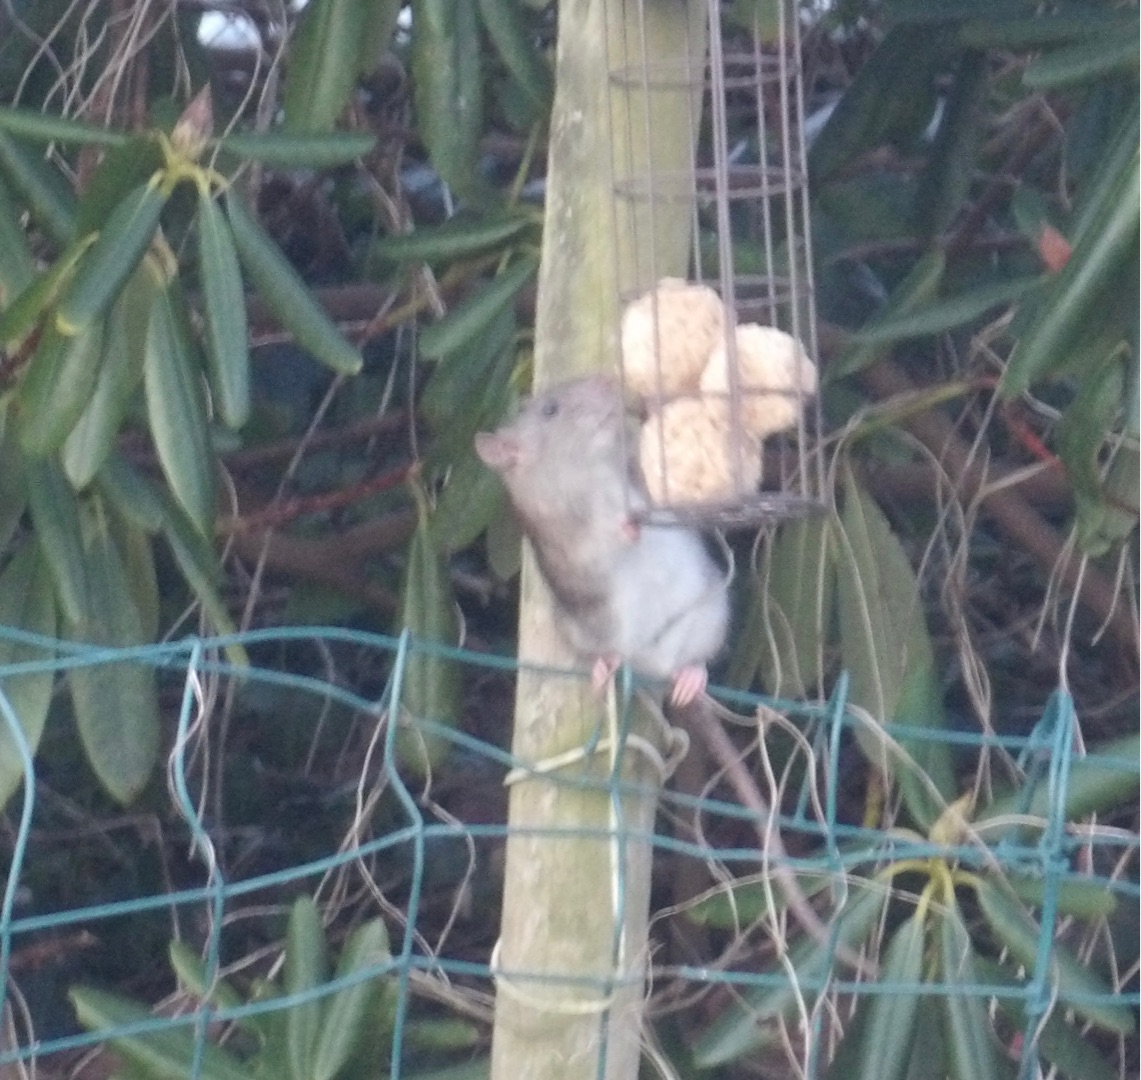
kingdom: Animalia
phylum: Chordata
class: Mammalia
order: Rodentia
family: Muridae
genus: Rattus
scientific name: Rattus norvegicus
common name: Brun rotte
